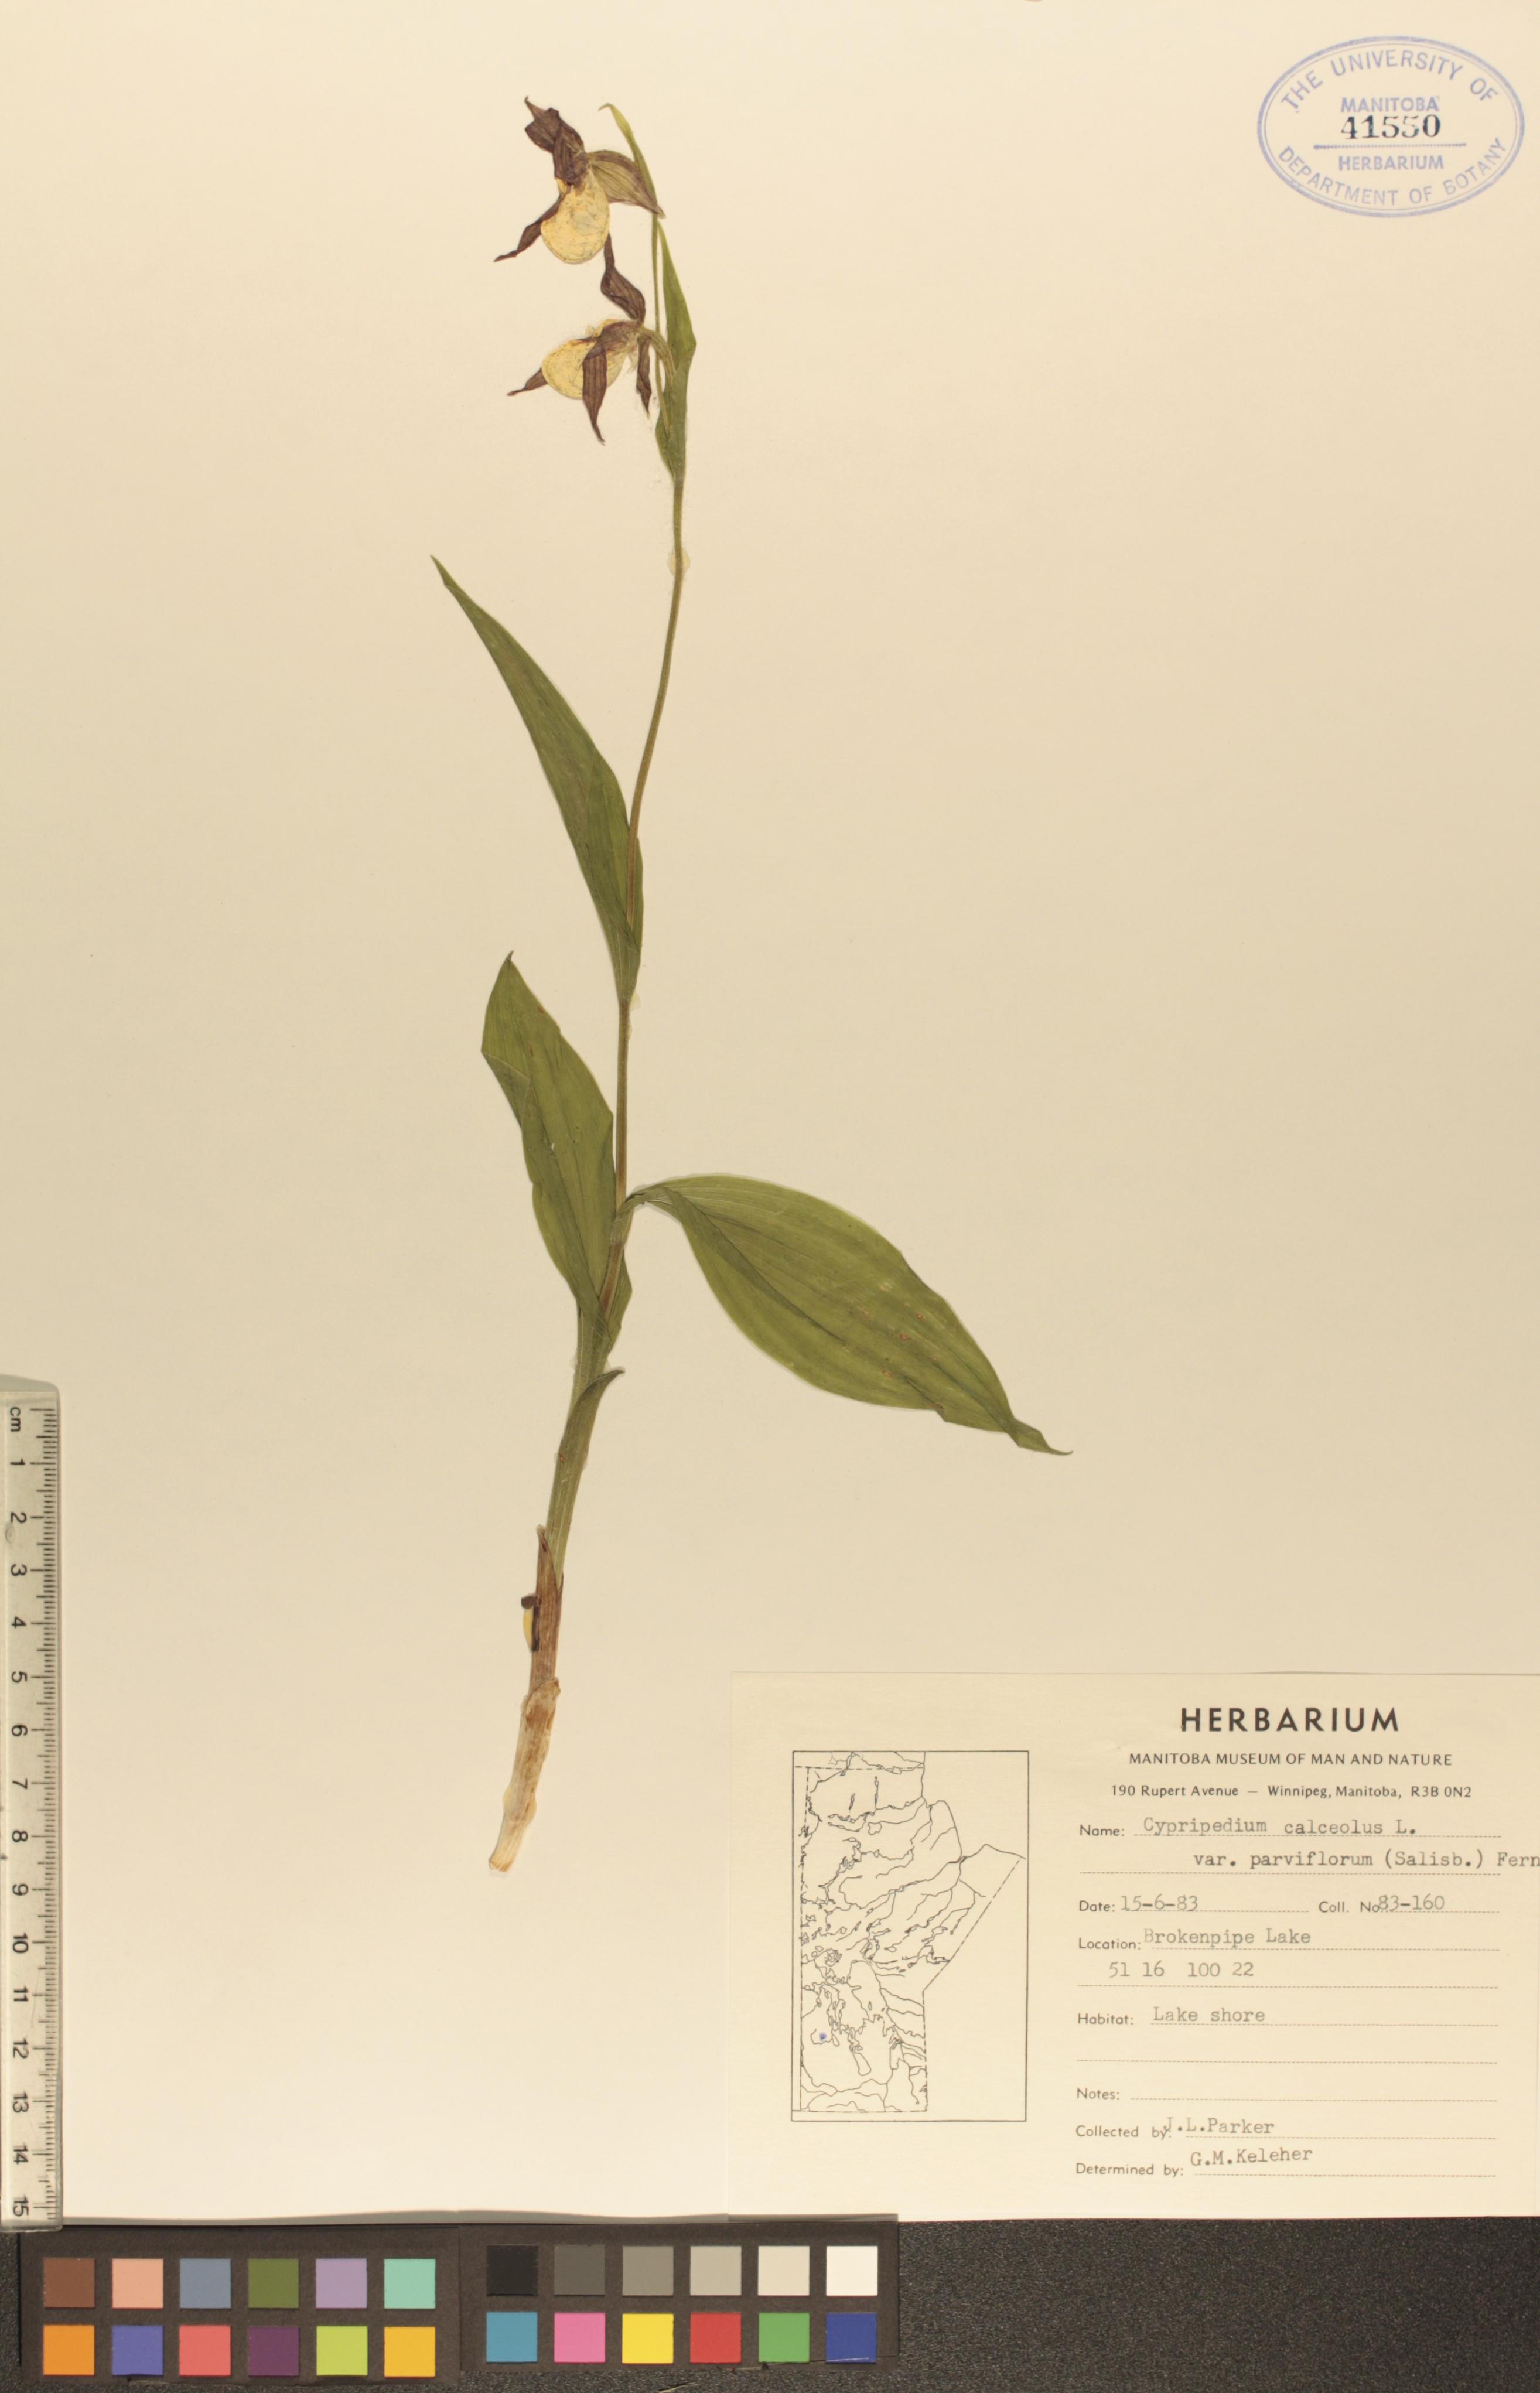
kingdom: Plantae
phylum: Tracheophyta
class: Liliopsida
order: Asparagales
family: Orchidaceae
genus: Cypripedium
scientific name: Cypripedium parviflorum
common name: American yellow lady's-slipper
